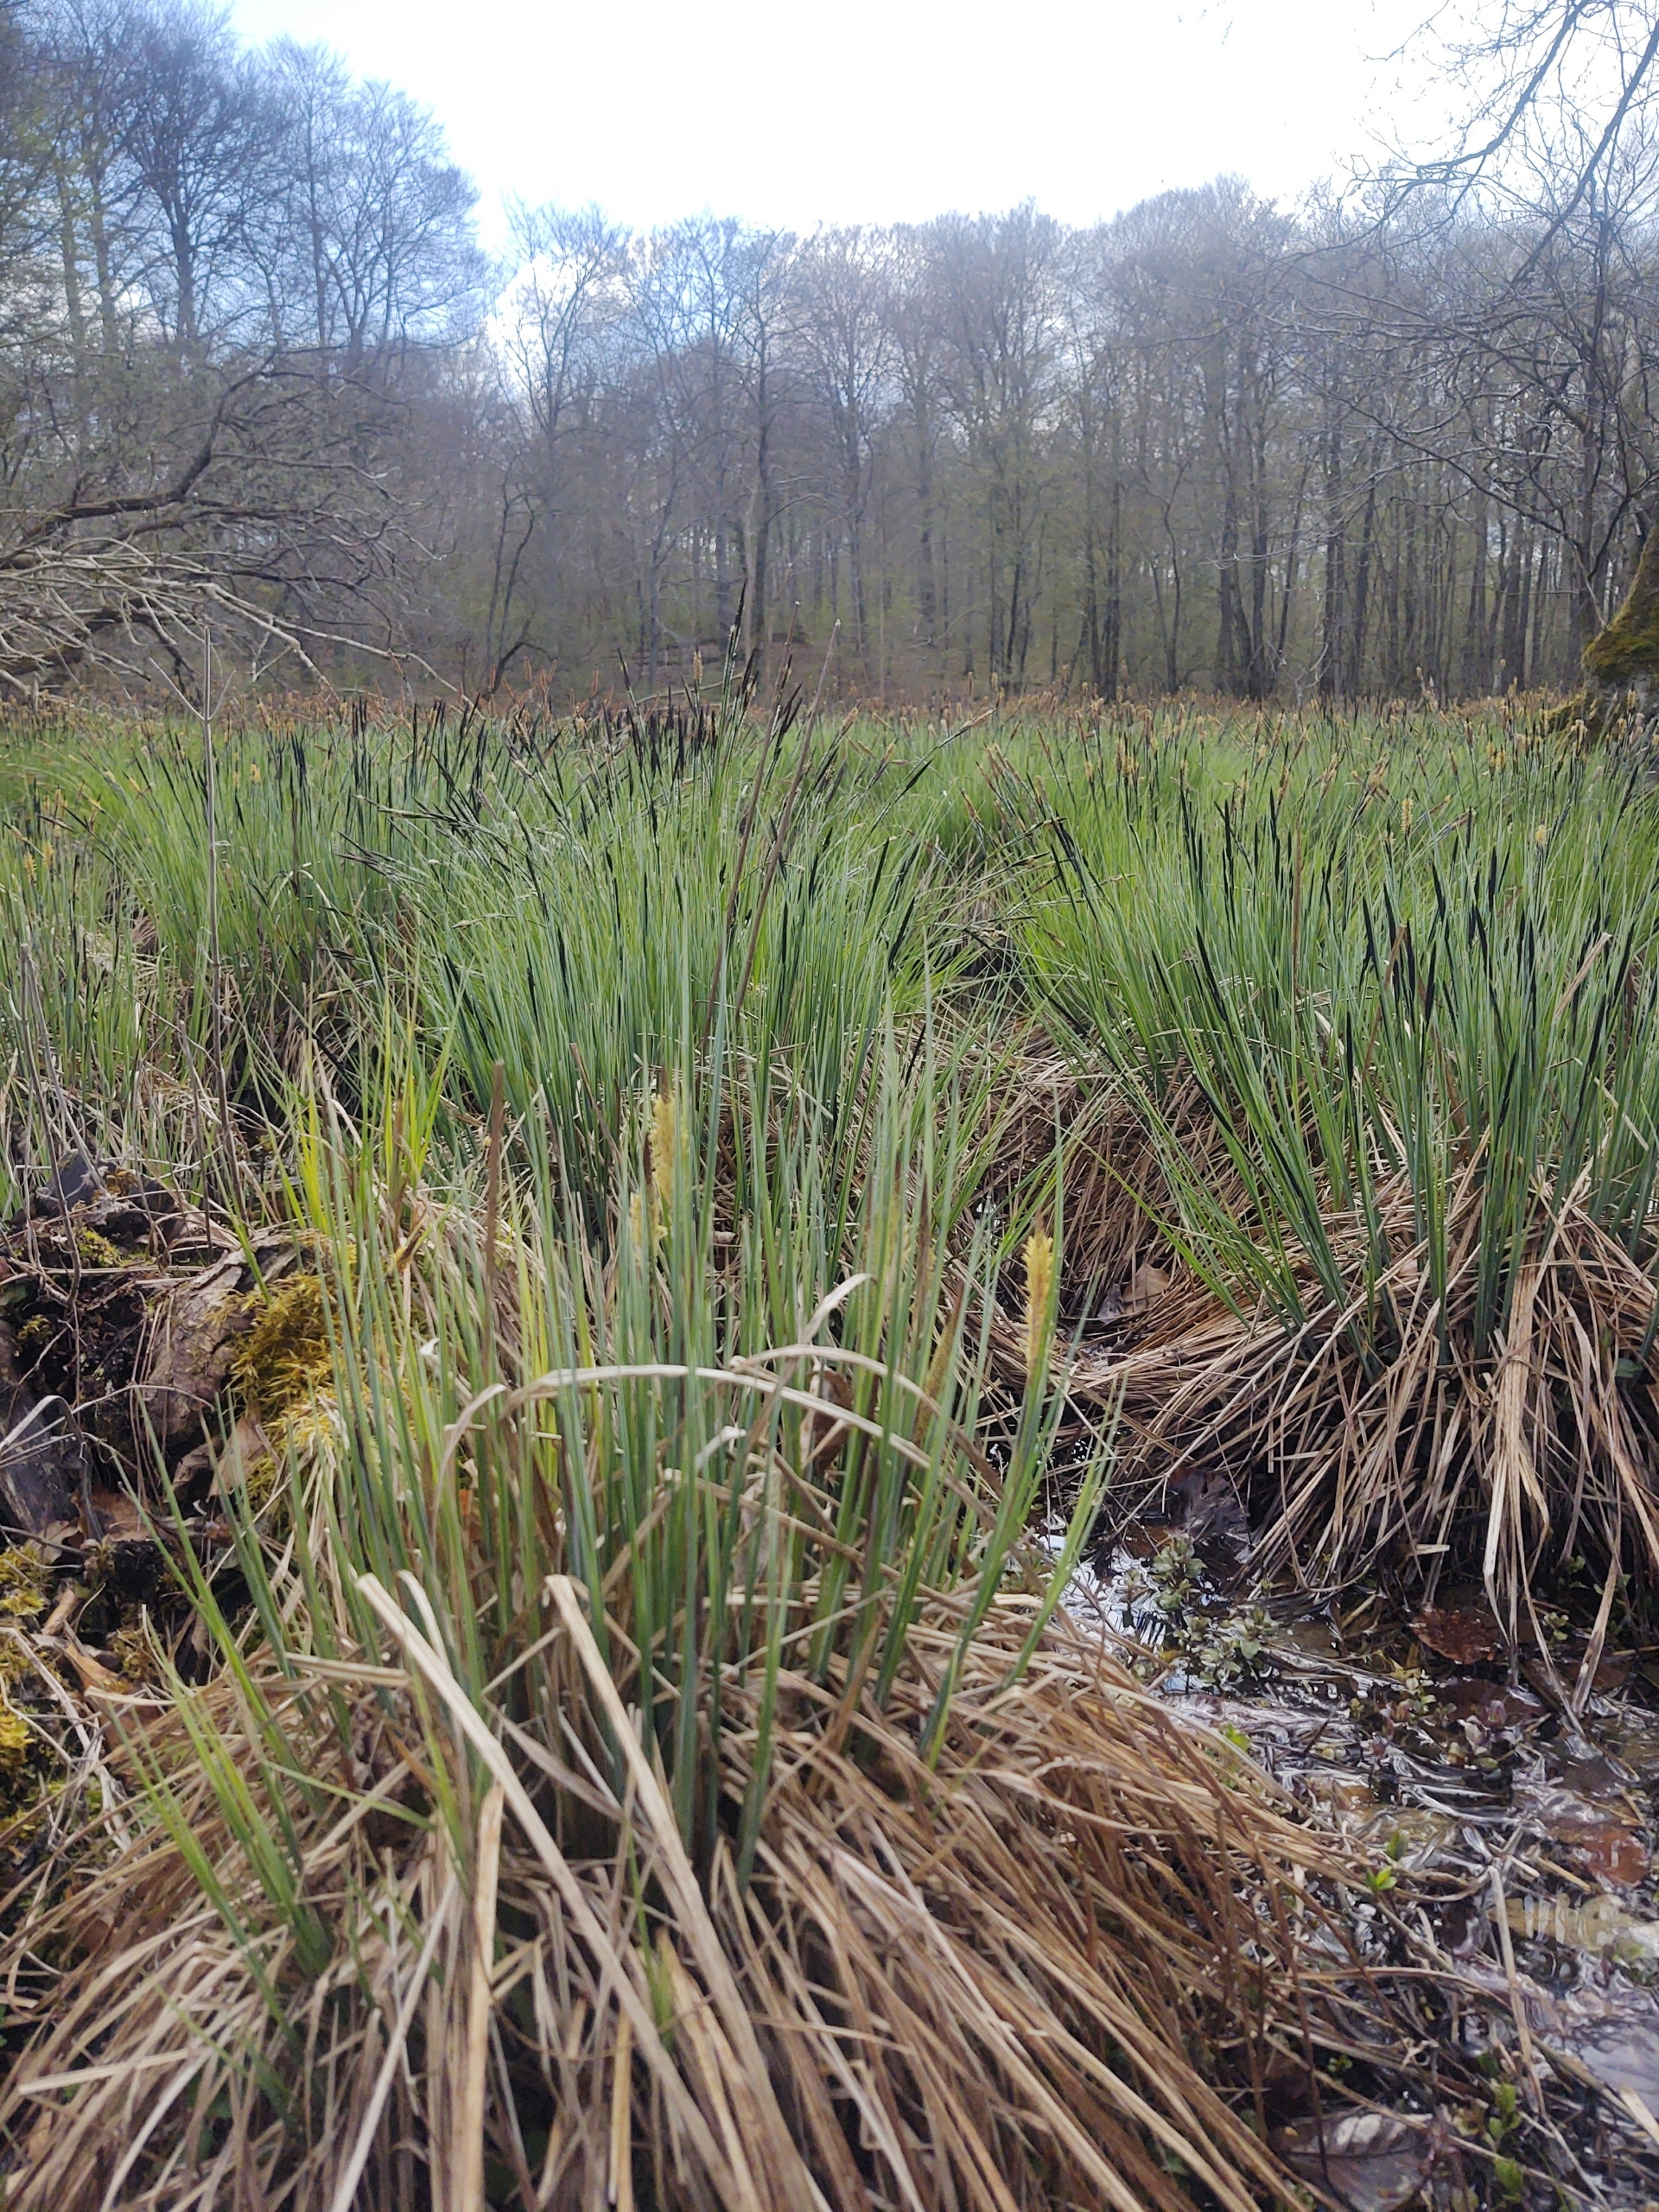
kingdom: Plantae
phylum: Tracheophyta
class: Liliopsida
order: Poales
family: Cyperaceae
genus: Carex
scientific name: Carex elata
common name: Stiv star
